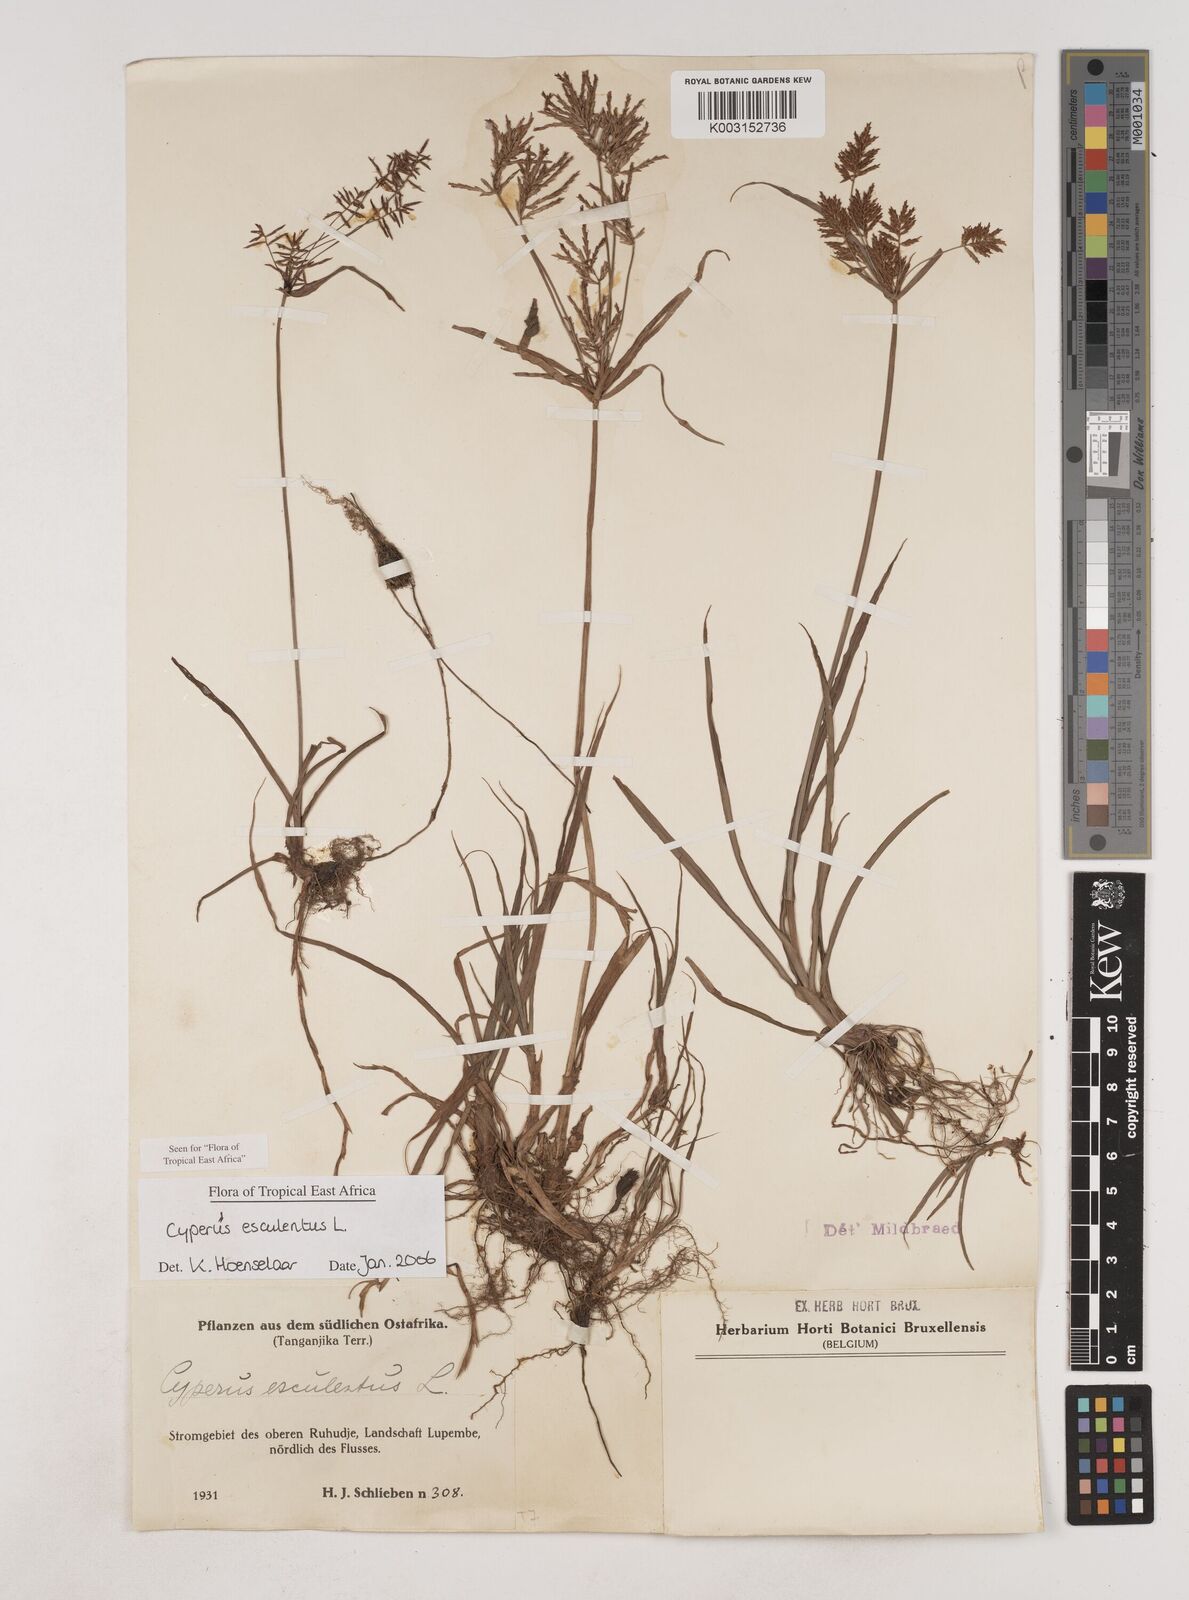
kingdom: Plantae
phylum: Tracheophyta
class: Liliopsida
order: Poales
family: Cyperaceae
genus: Cyperus
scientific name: Cyperus esculentus
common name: Yellow nutsedge
